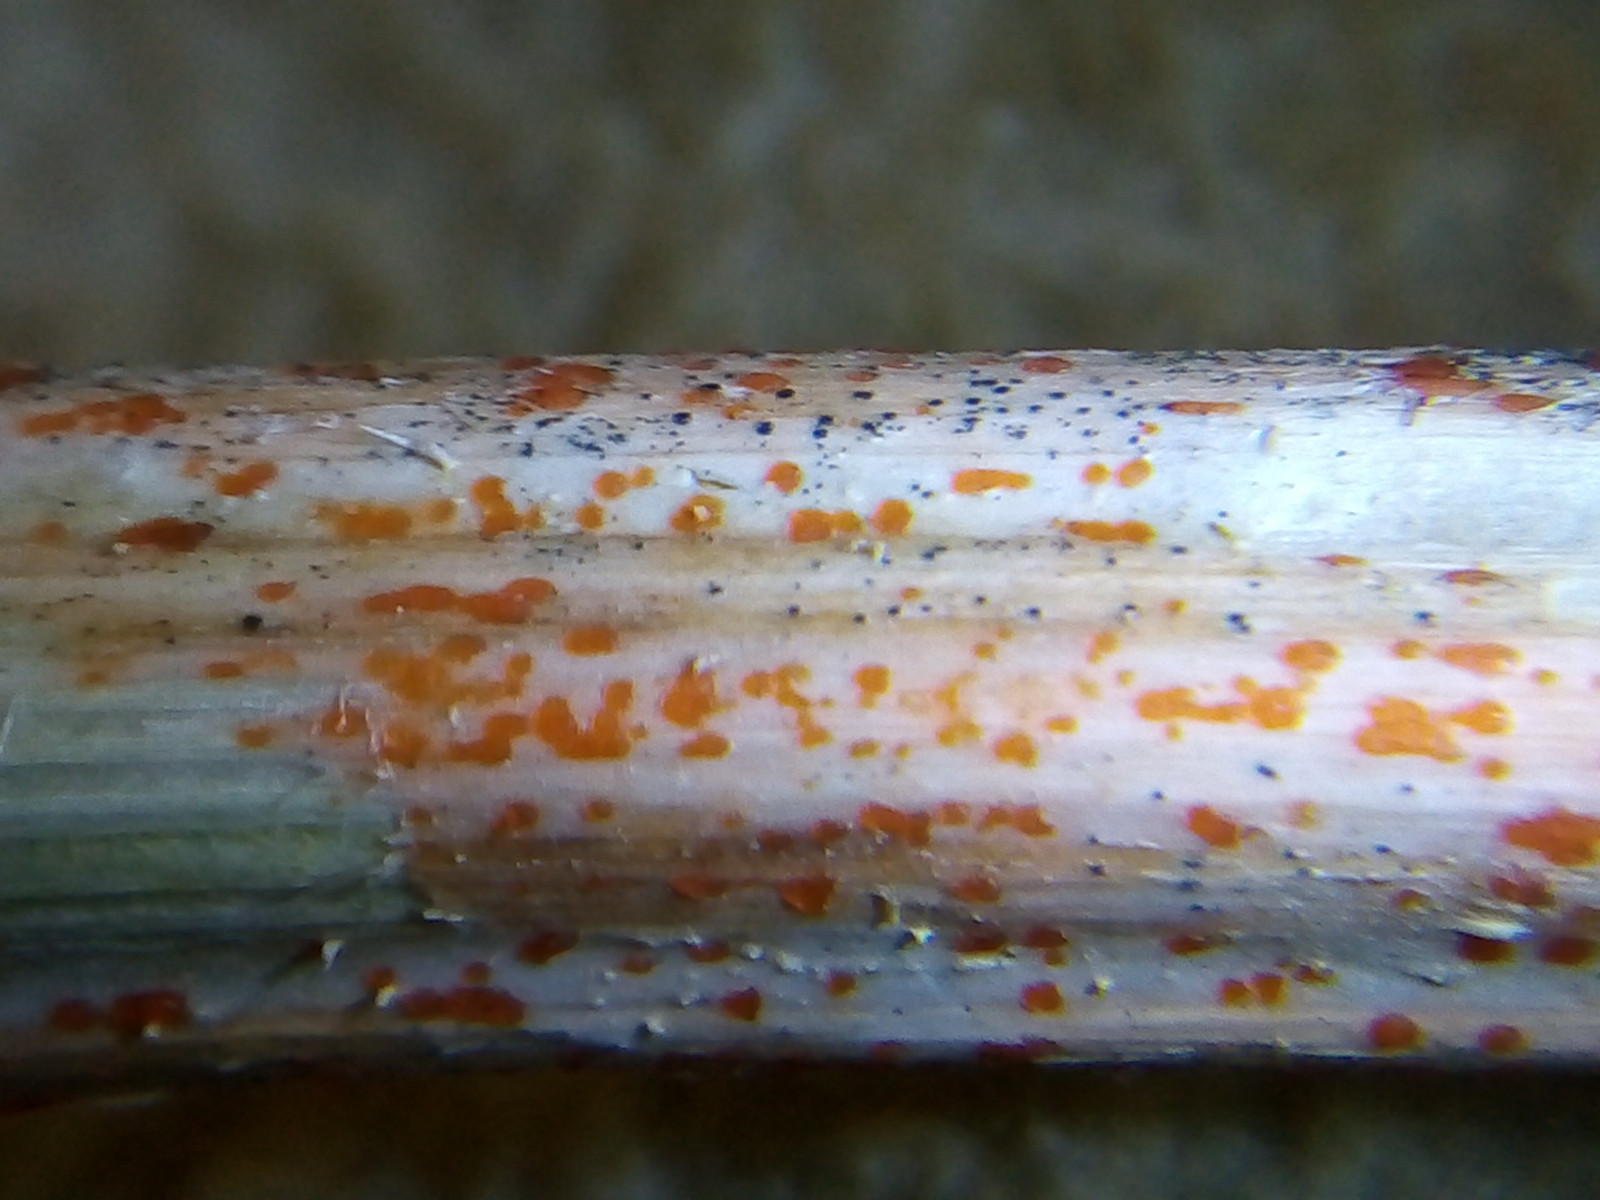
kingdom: Fungi
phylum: Ascomycota
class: Leotiomycetes
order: Helotiales
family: Calloriaceae
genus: Calloria
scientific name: Calloria urticae
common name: nælde-orangeskive
